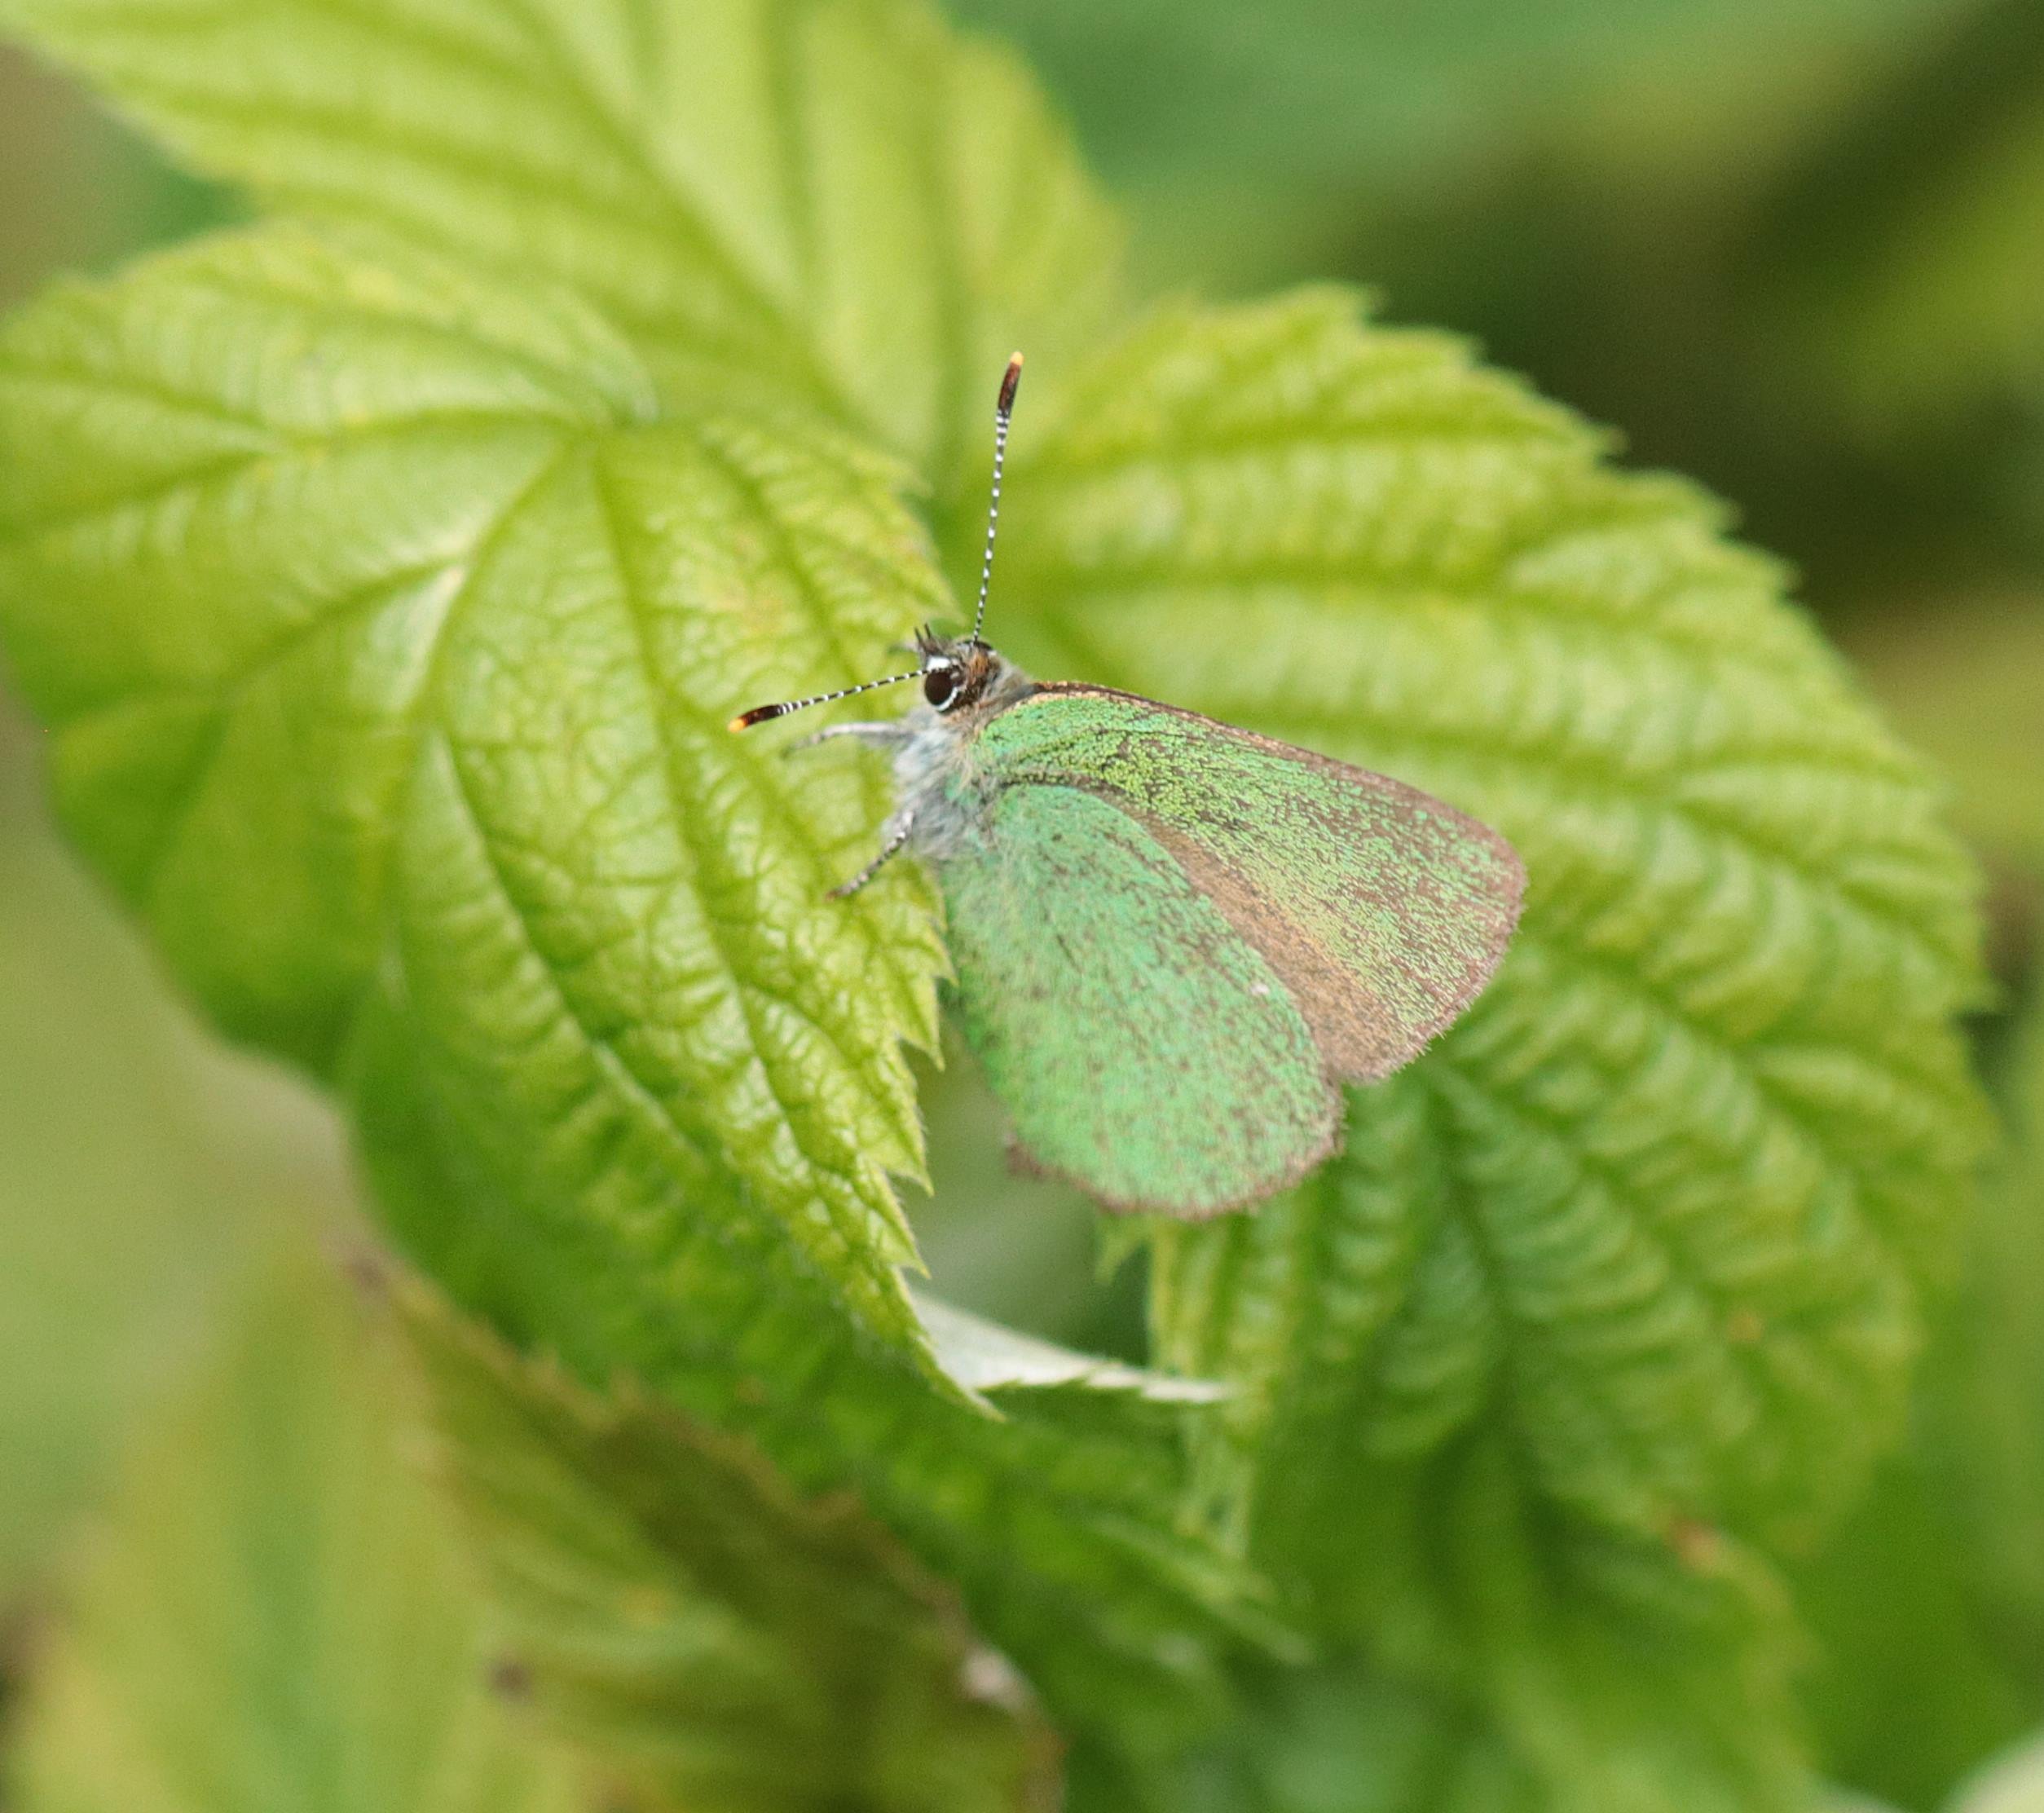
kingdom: Animalia
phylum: Arthropoda
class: Insecta
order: Lepidoptera
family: Lycaenidae
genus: Callophrys
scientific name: Callophrys rubi
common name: Grøn busksommerfugl
